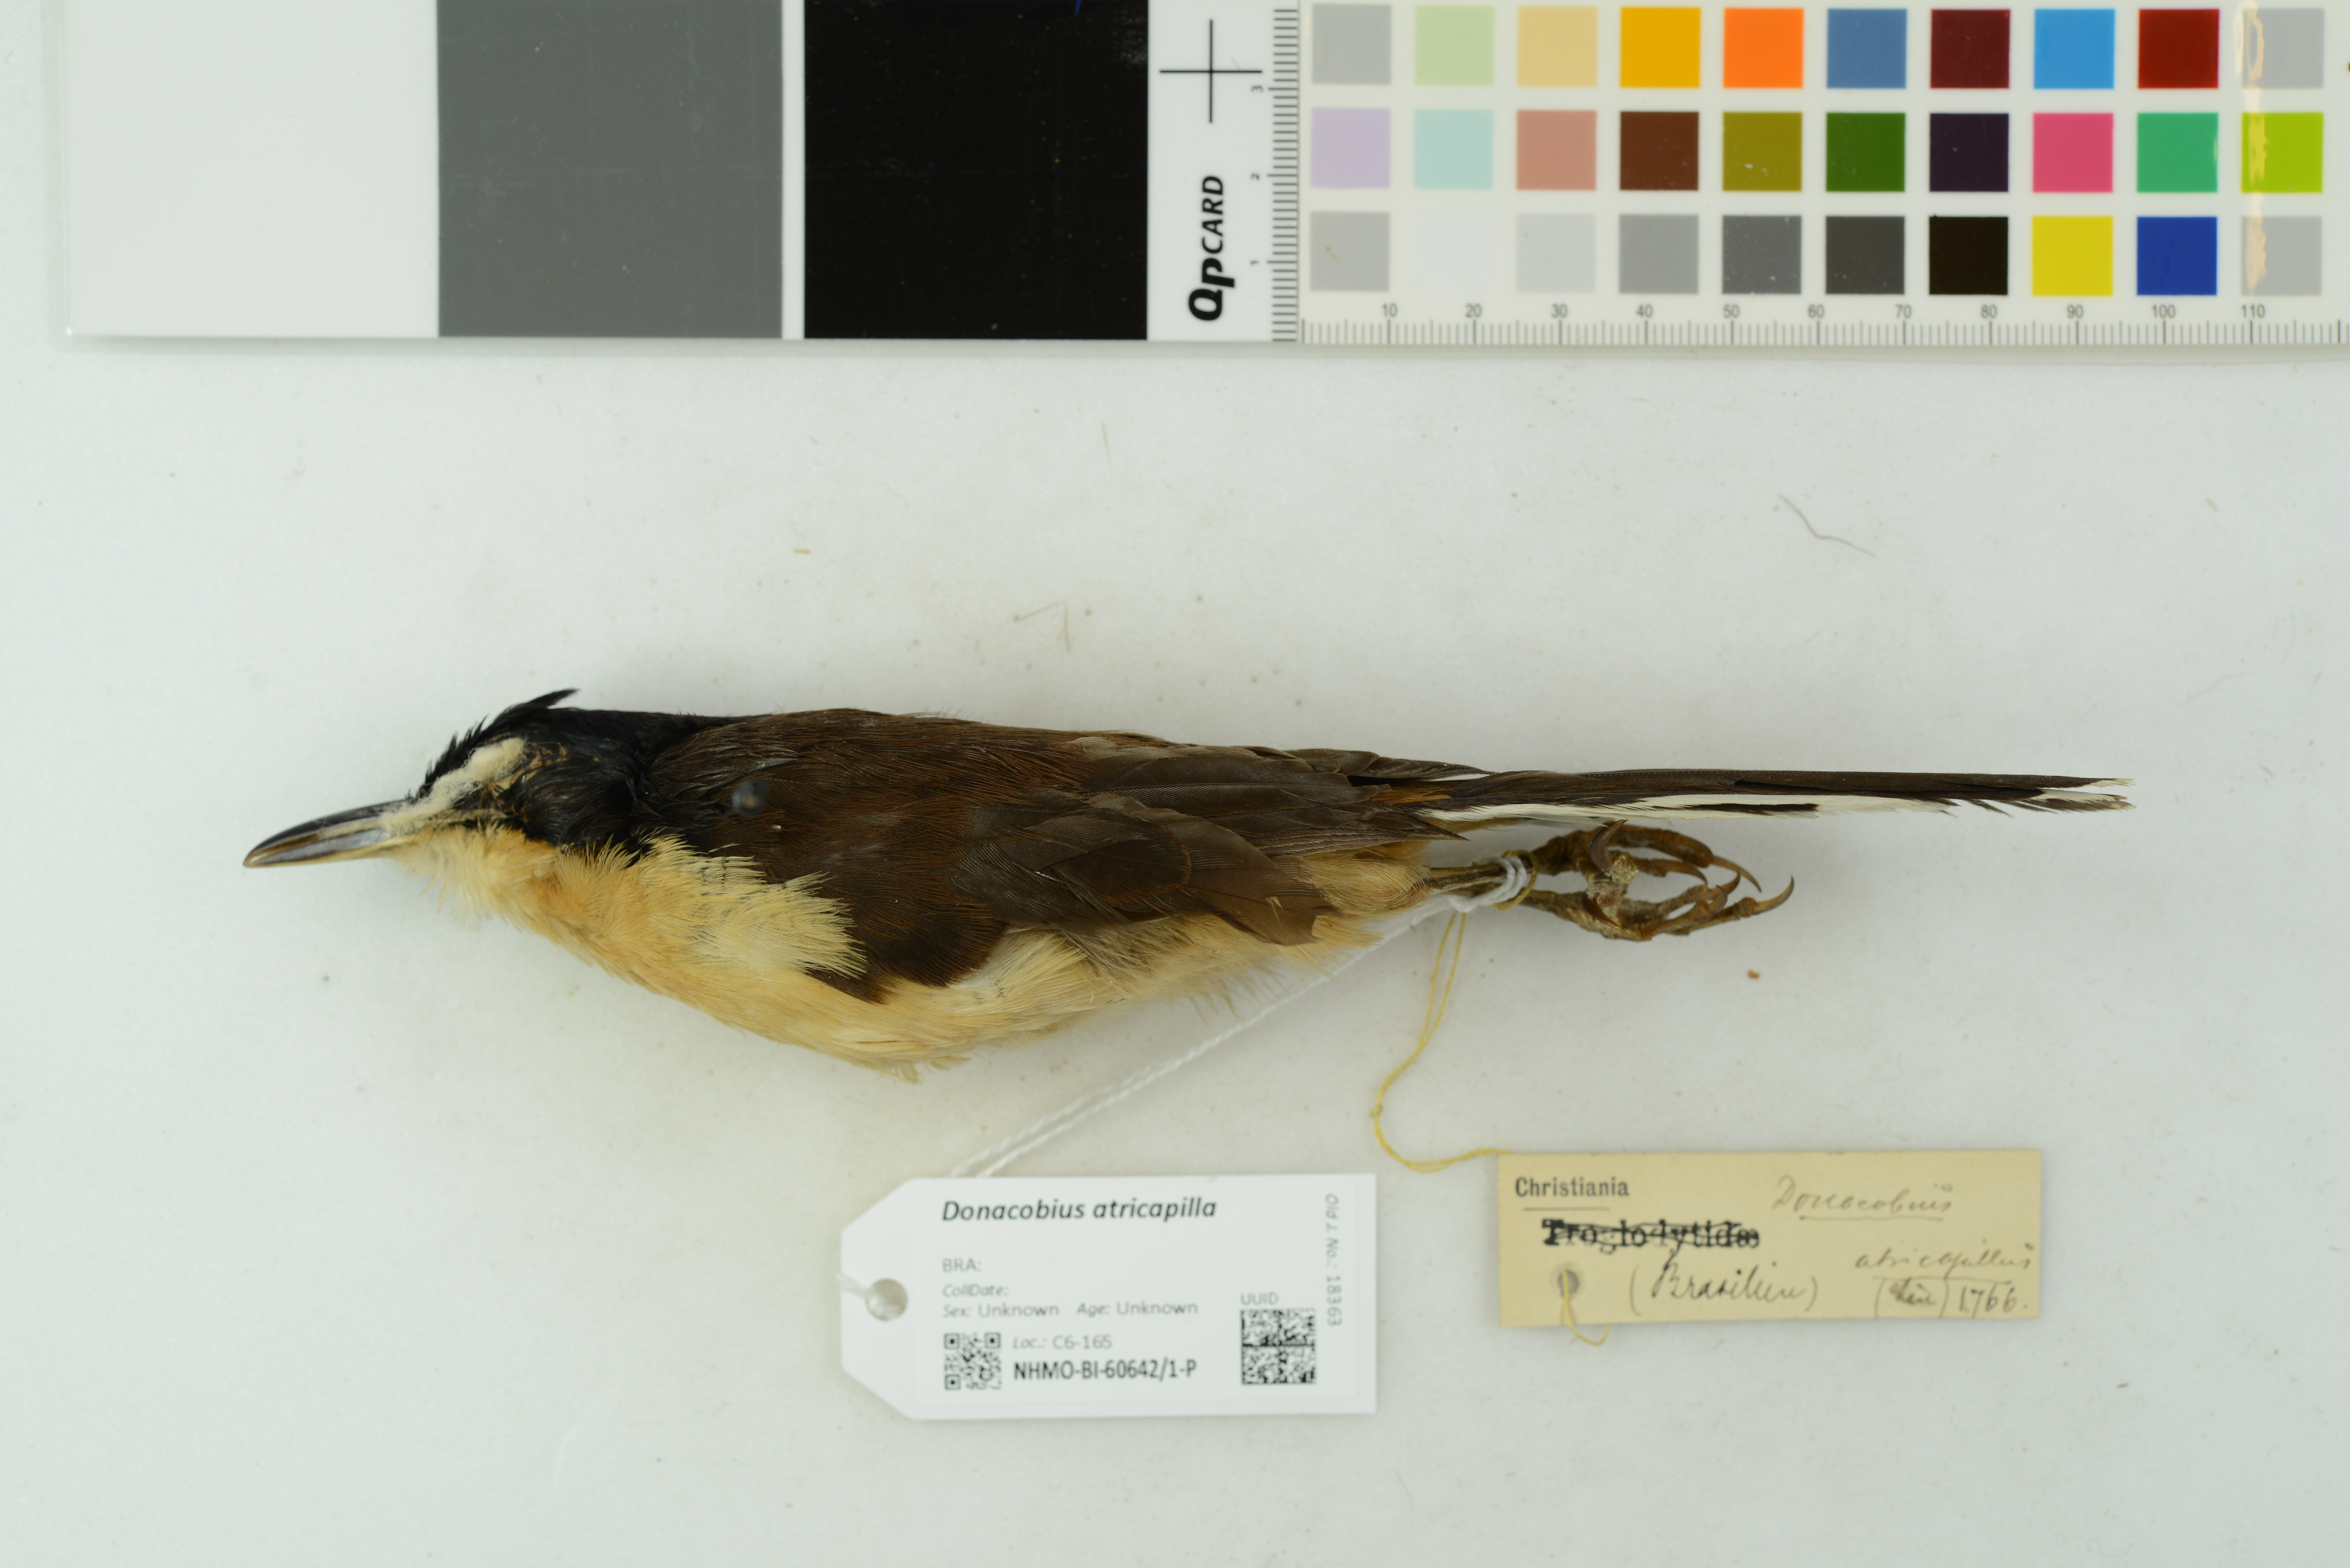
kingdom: Animalia
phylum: Chordata
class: Aves
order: Passeriformes
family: Donacobiidae
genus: Donacobius
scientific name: Donacobius atricapilla
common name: Black-capped donacobius
